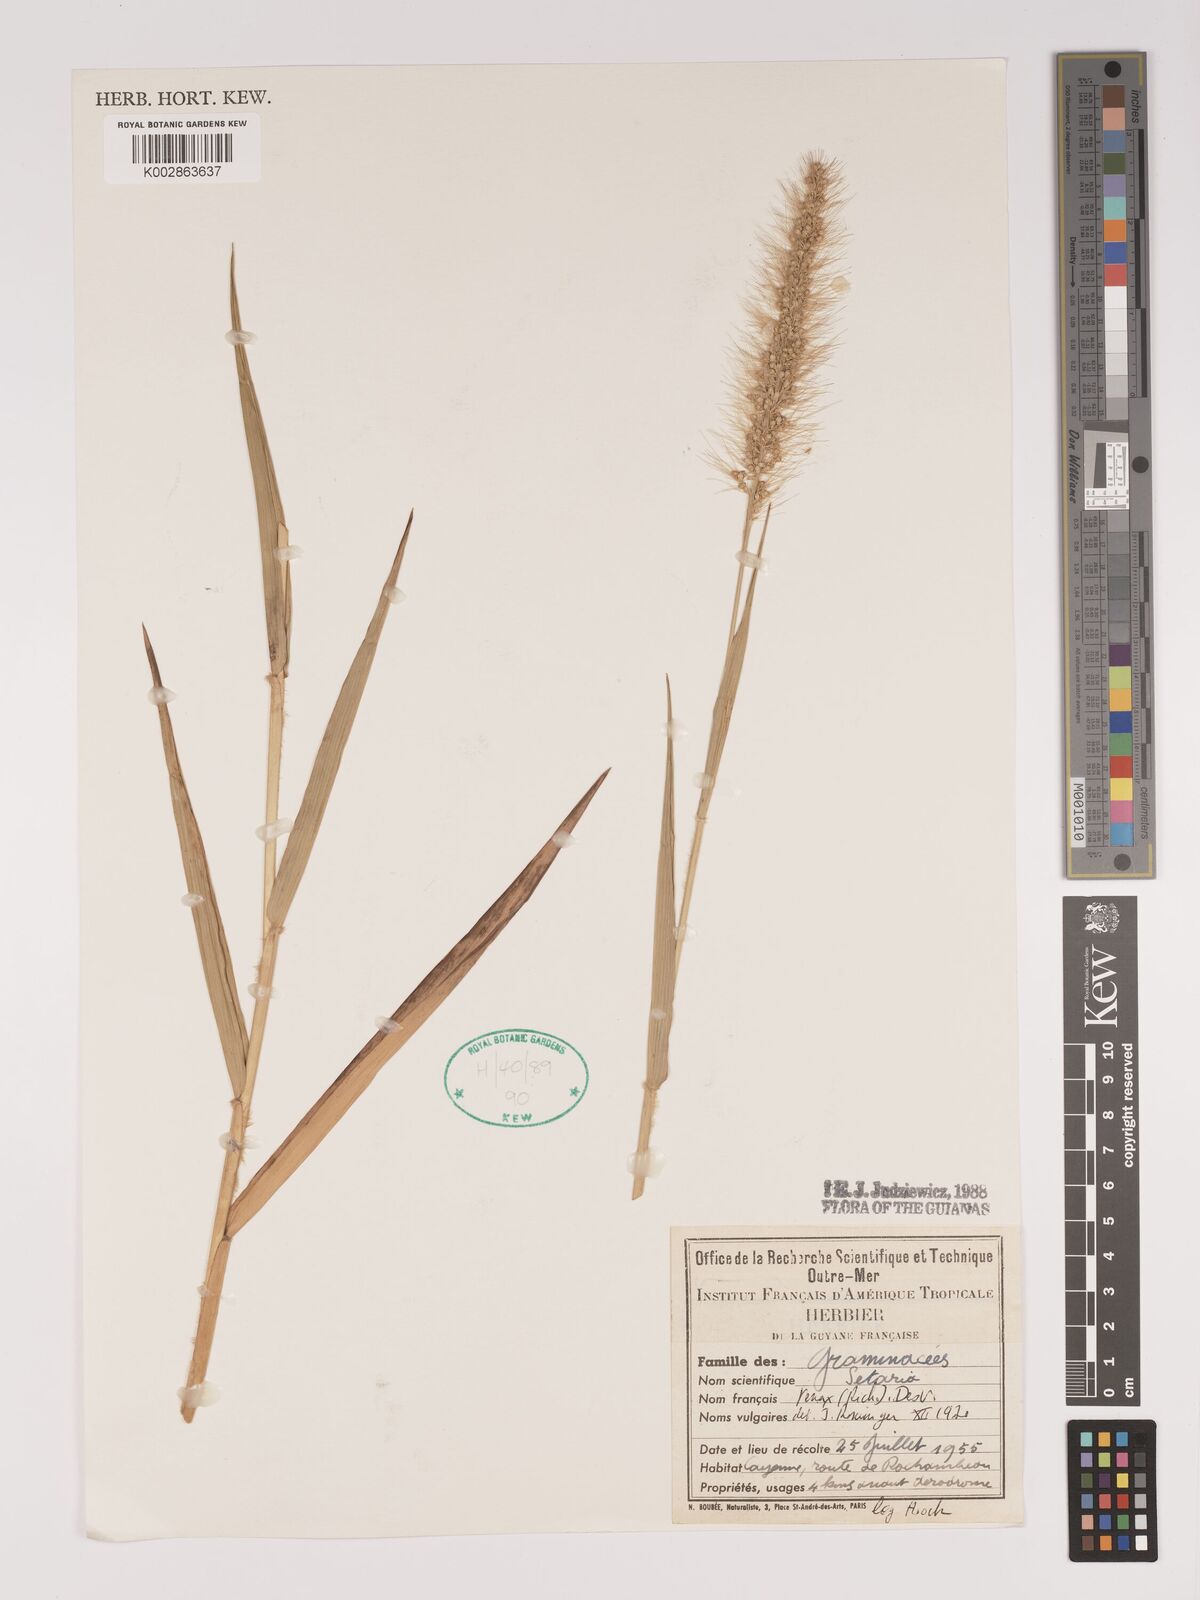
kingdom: Plantae
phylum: Tracheophyta
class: Liliopsida
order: Poales
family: Poaceae
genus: Setaria
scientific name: Setaria tenax
